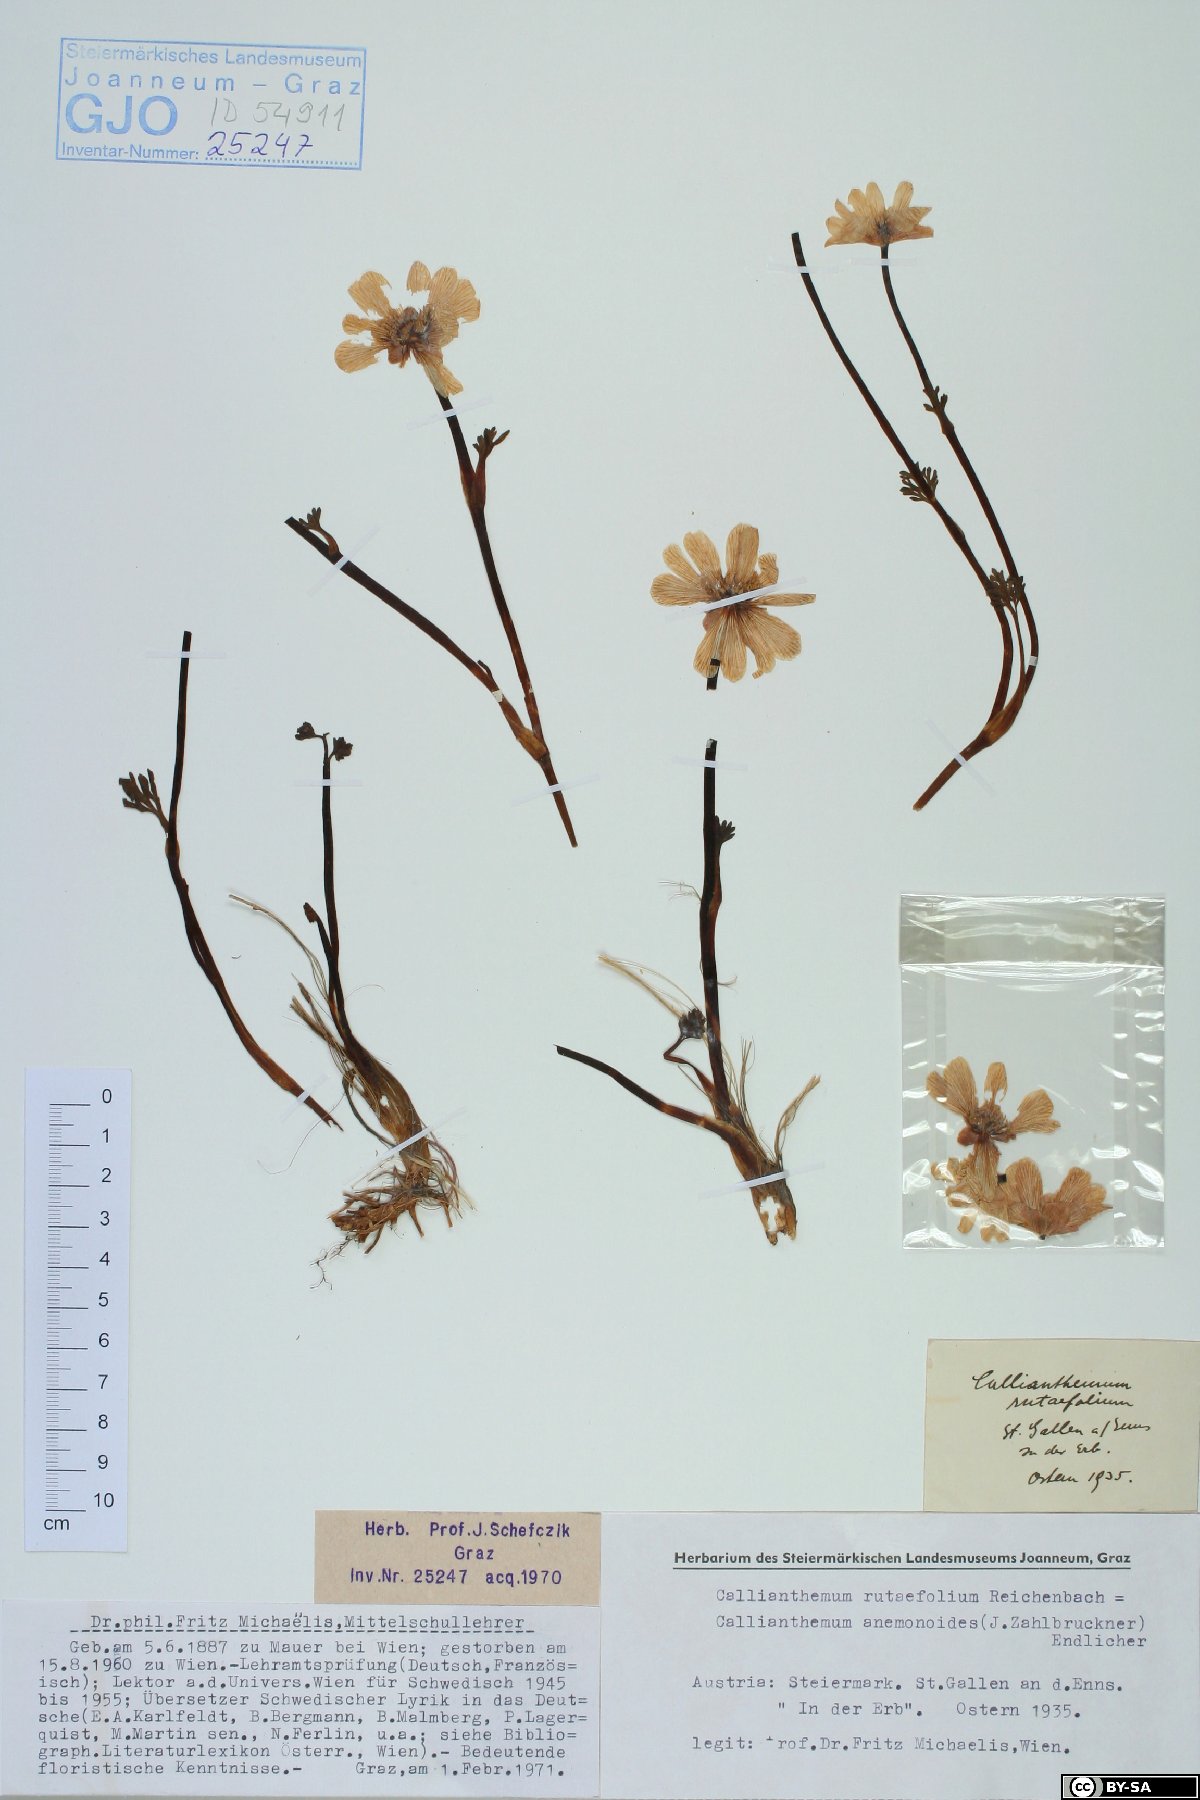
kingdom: Plantae
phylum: Tracheophyta
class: Magnoliopsida
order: Ranunculales
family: Ranunculaceae
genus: Callianthemum
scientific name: Callianthemum anemonoides
